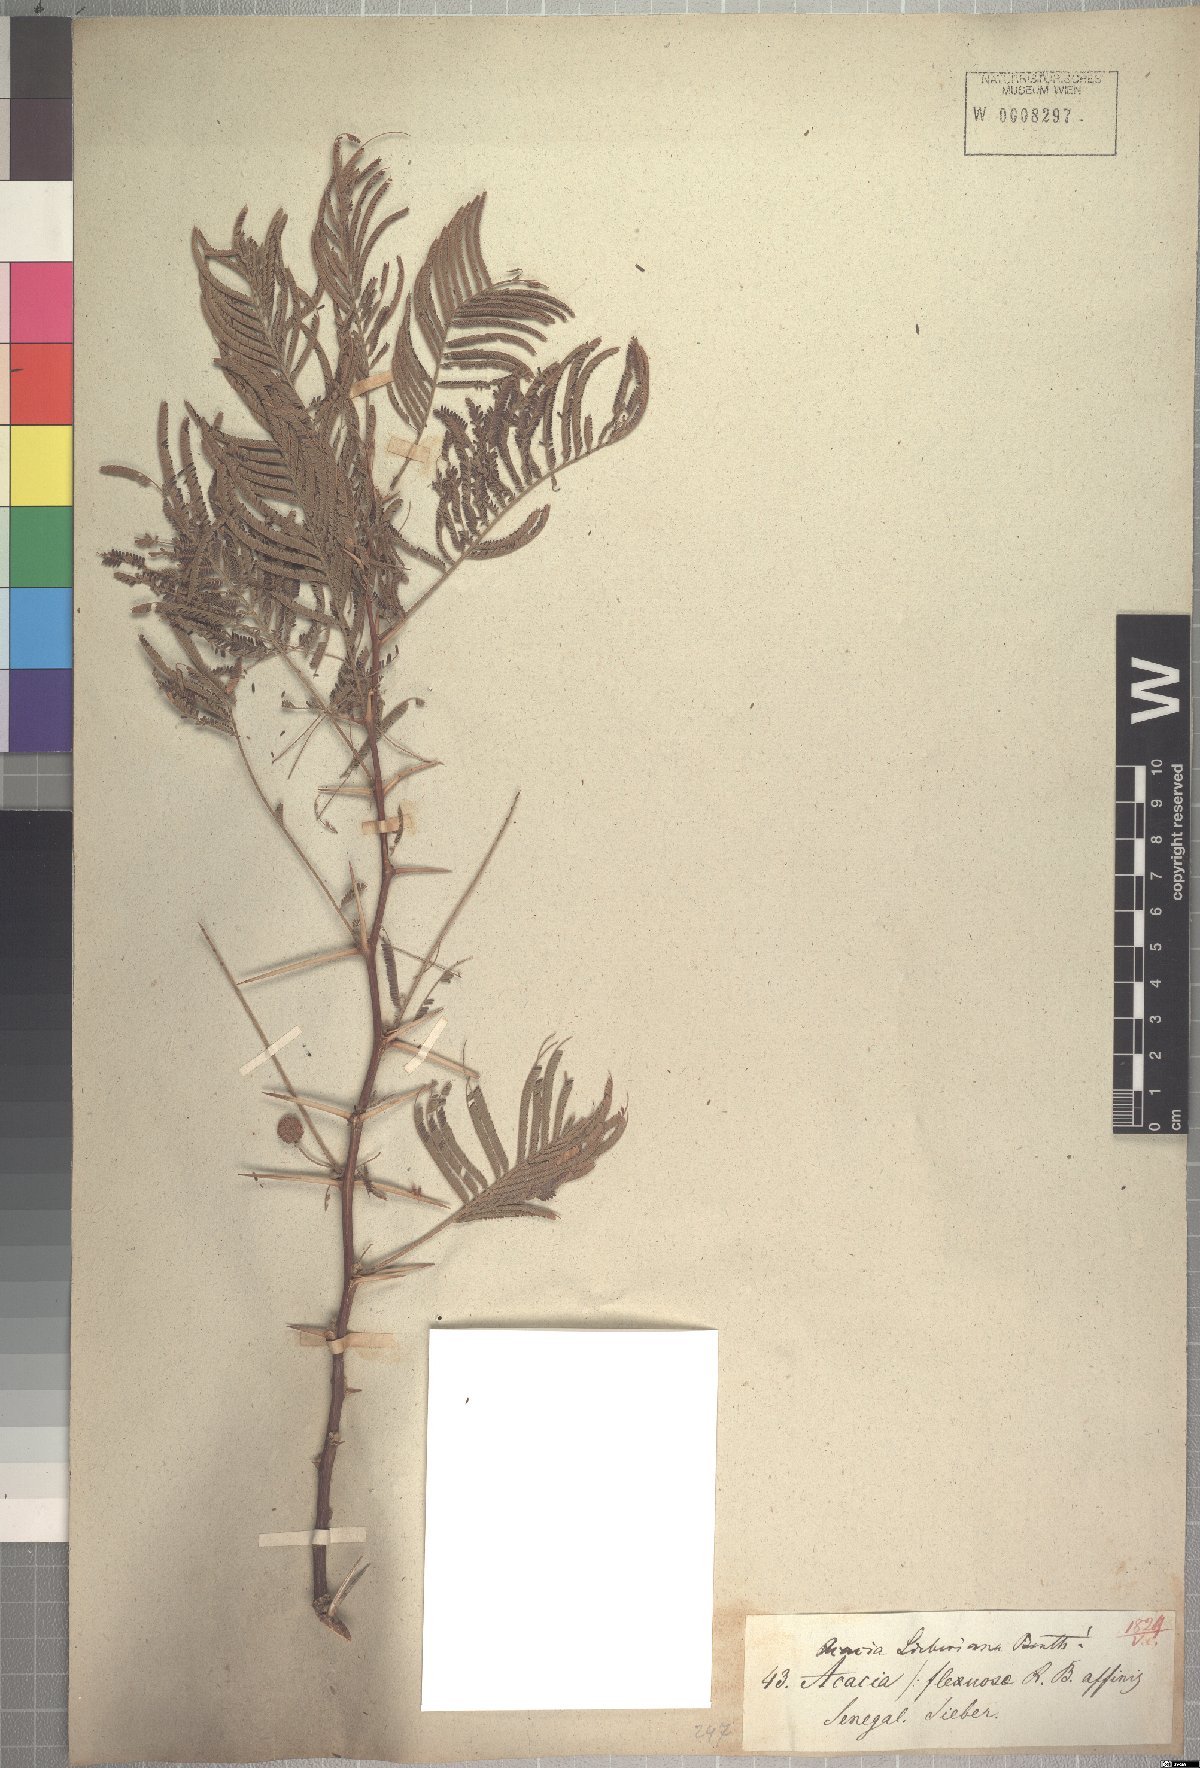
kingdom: Plantae
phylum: Tracheophyta
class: Magnoliopsida
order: Fabales
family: Fabaceae
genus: Vachellia
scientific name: Vachellia sieberiana
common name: Flat-topped thorn
